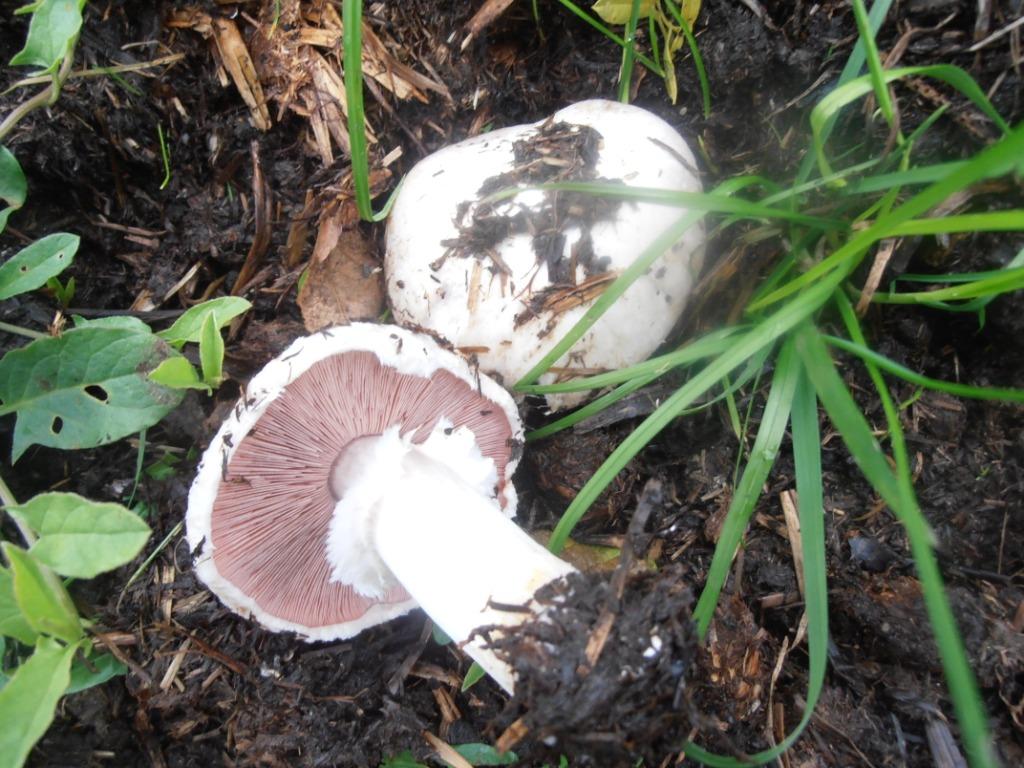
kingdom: Fungi
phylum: Basidiomycota
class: Agaricomycetes
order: Agaricales
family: Agaricaceae
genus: Agaricus
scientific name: Agaricus campestris
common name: mark-champignon
